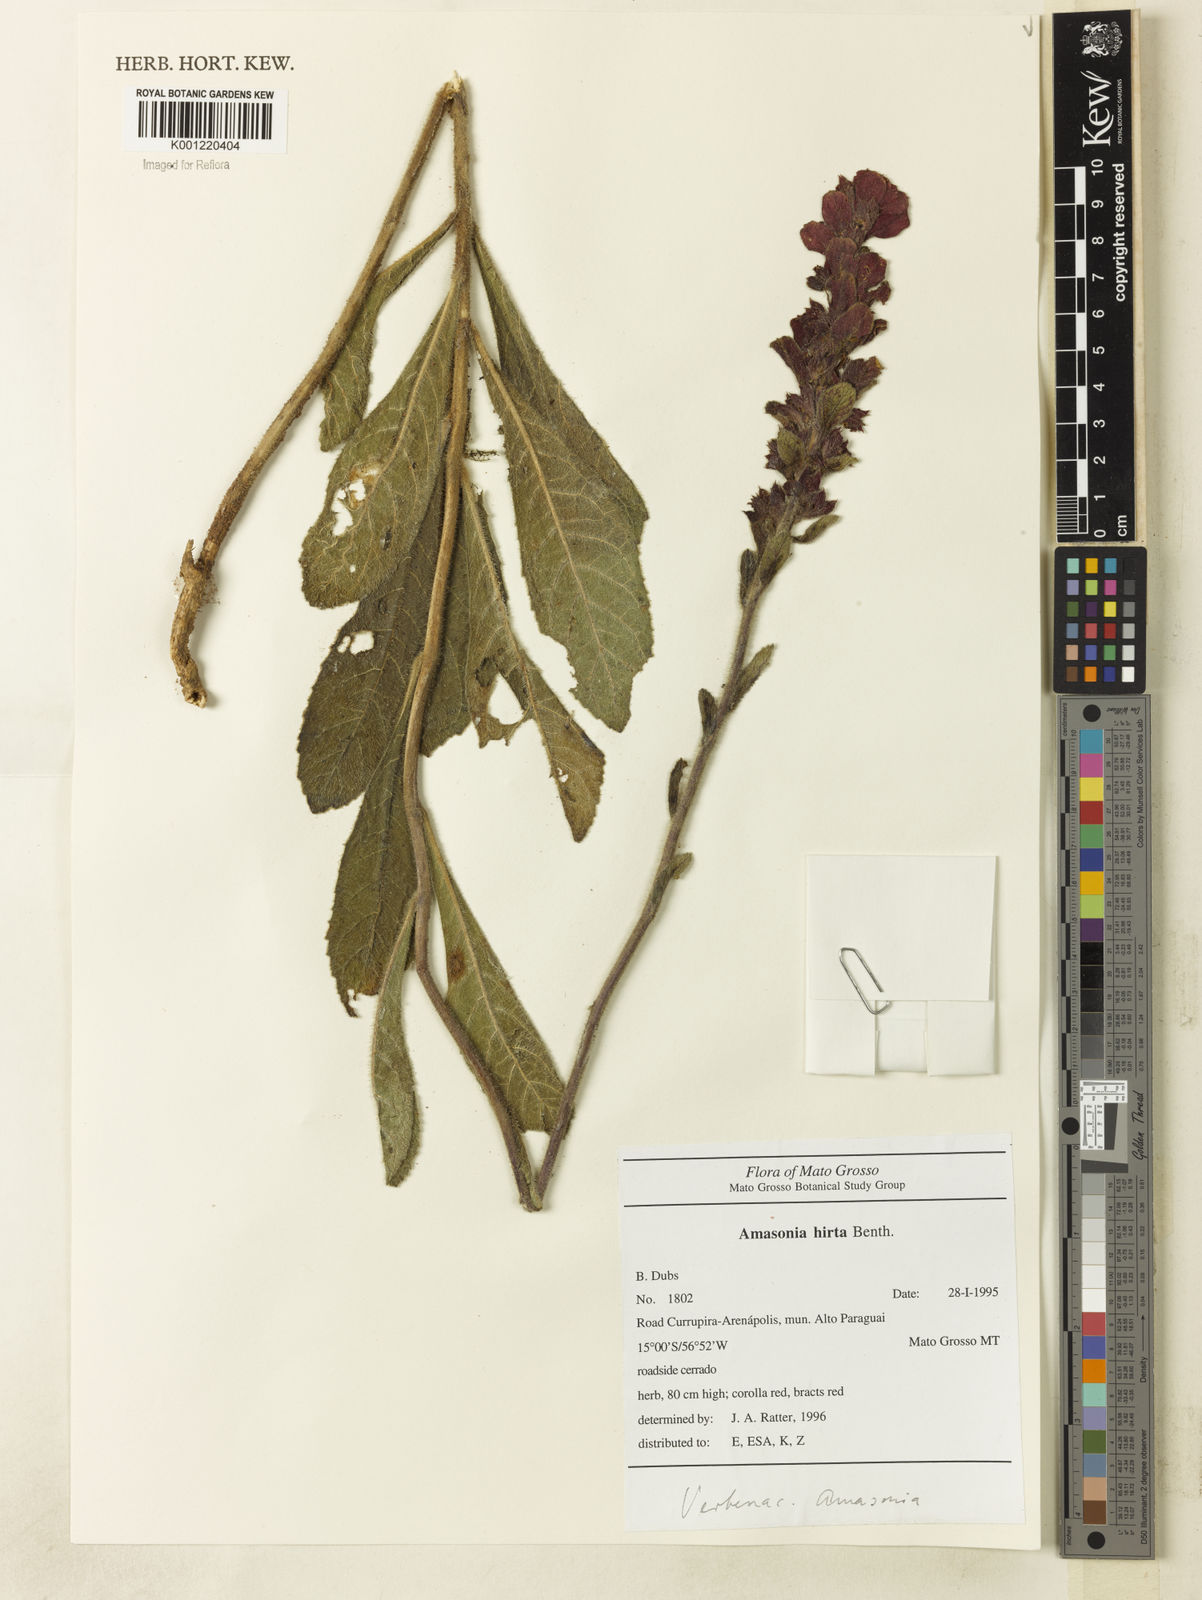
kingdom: Plantae
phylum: Tracheophyta
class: Magnoliopsida
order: Lamiales
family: Lamiaceae
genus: Amasonia
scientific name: Amasonia hirta
